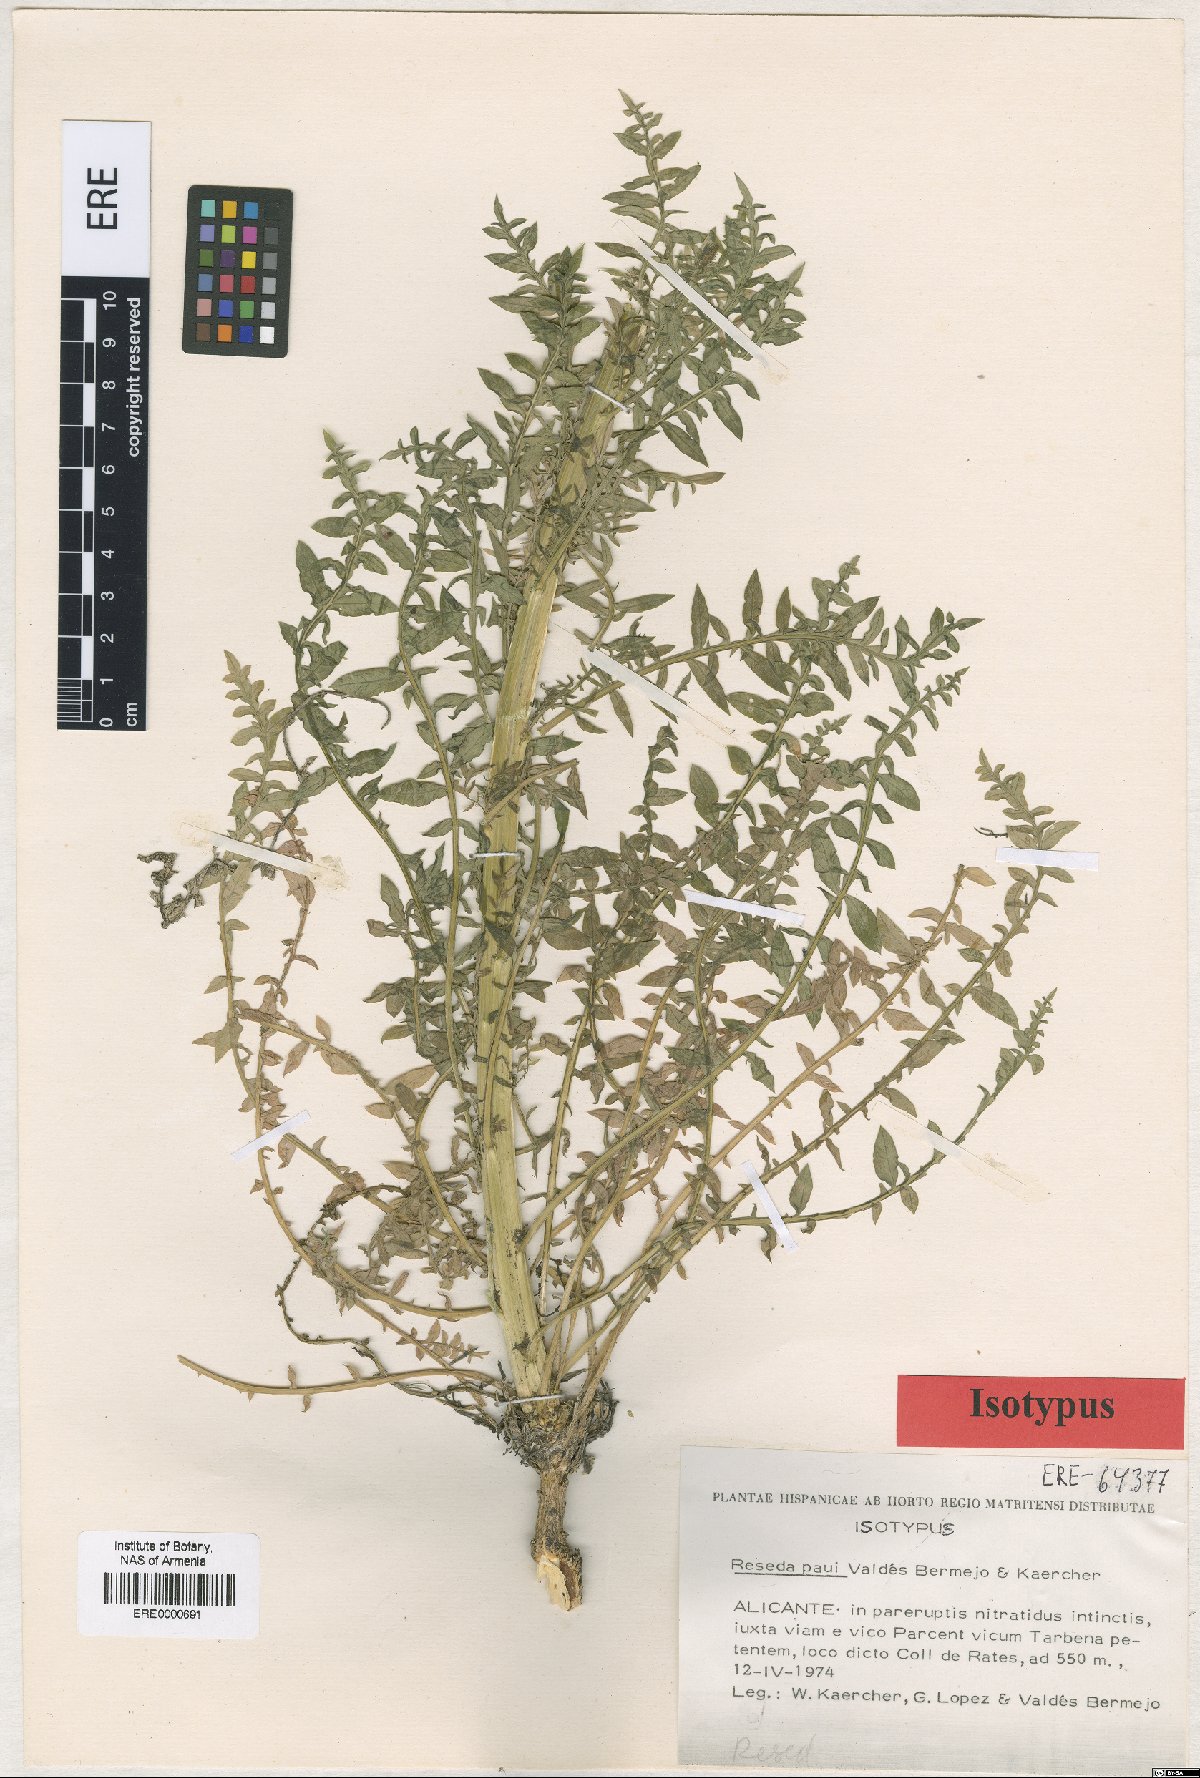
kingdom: Plantae
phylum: Tracheophyta
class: Magnoliopsida
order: Brassicales
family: Resedaceae
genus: Reseda
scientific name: Reseda valentina
